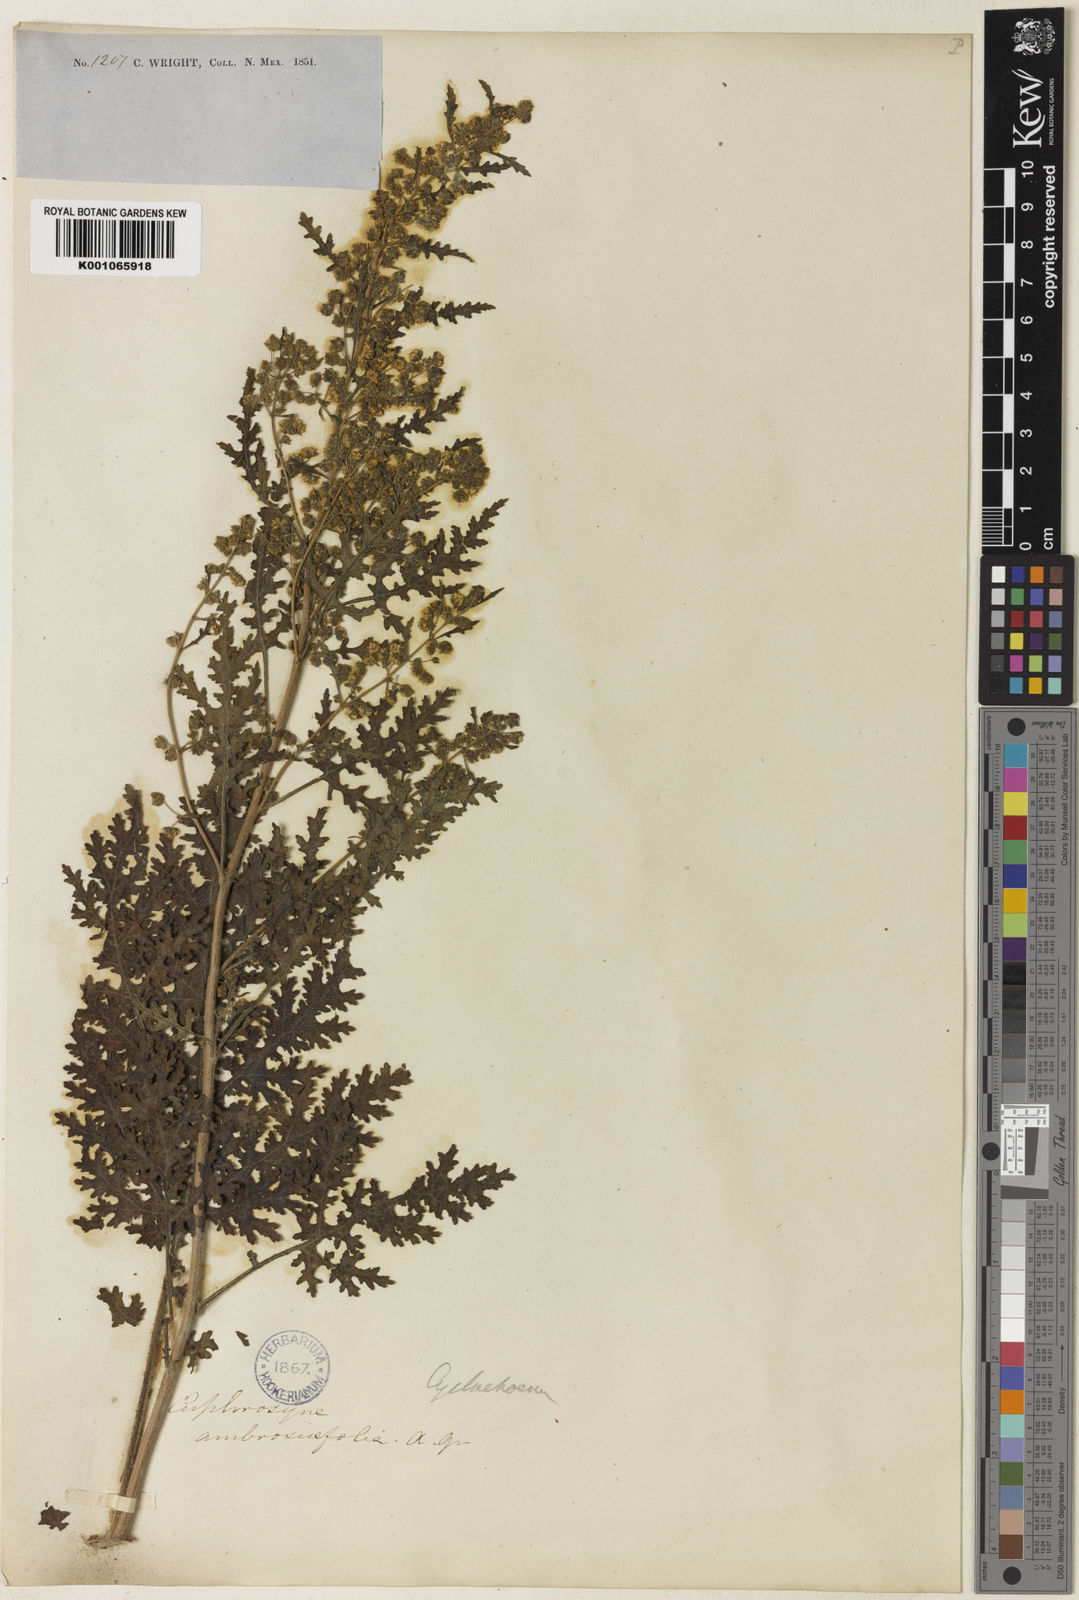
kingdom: Plantae
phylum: Tracheophyta
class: Magnoliopsida
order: Asterales
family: Asteraceae
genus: Euphrosyne
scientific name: Euphrosyne
